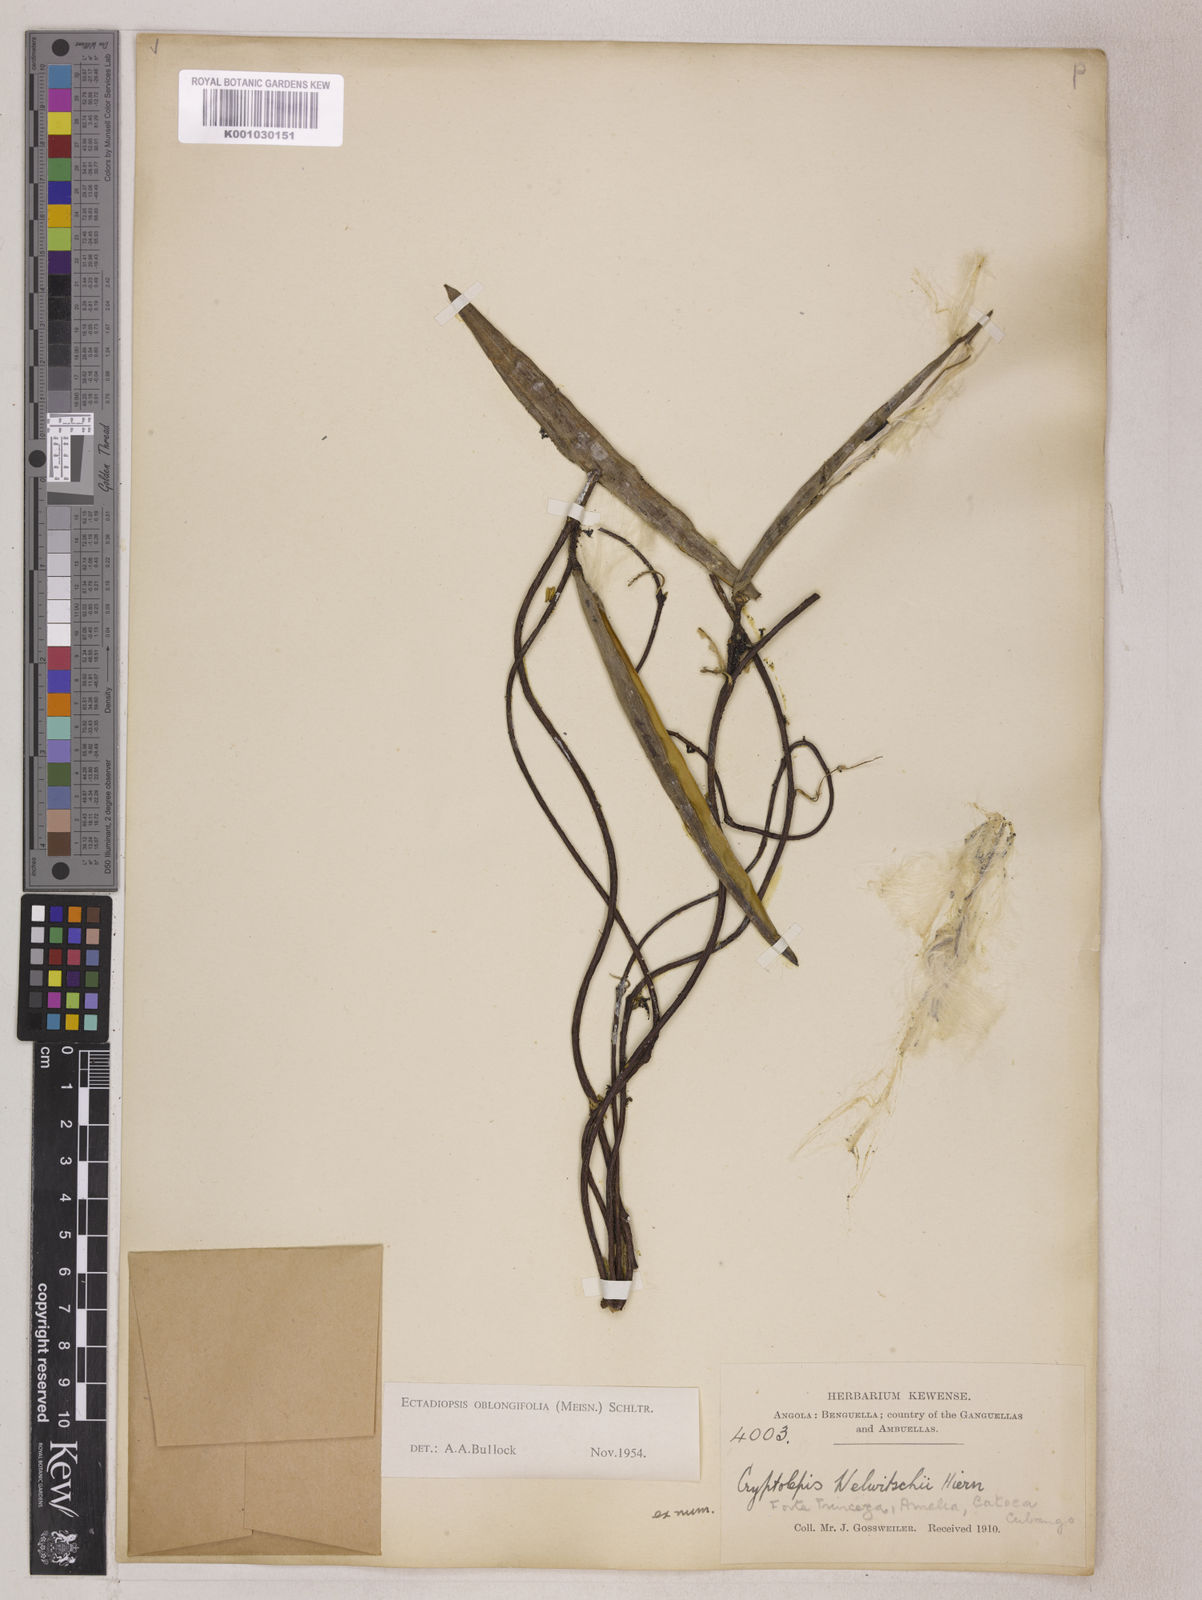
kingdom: Plantae
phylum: Tracheophyta
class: Magnoliopsida
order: Gentianales
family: Apocynaceae
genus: Cryptolepis
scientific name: Cryptolepis oblongifolia
